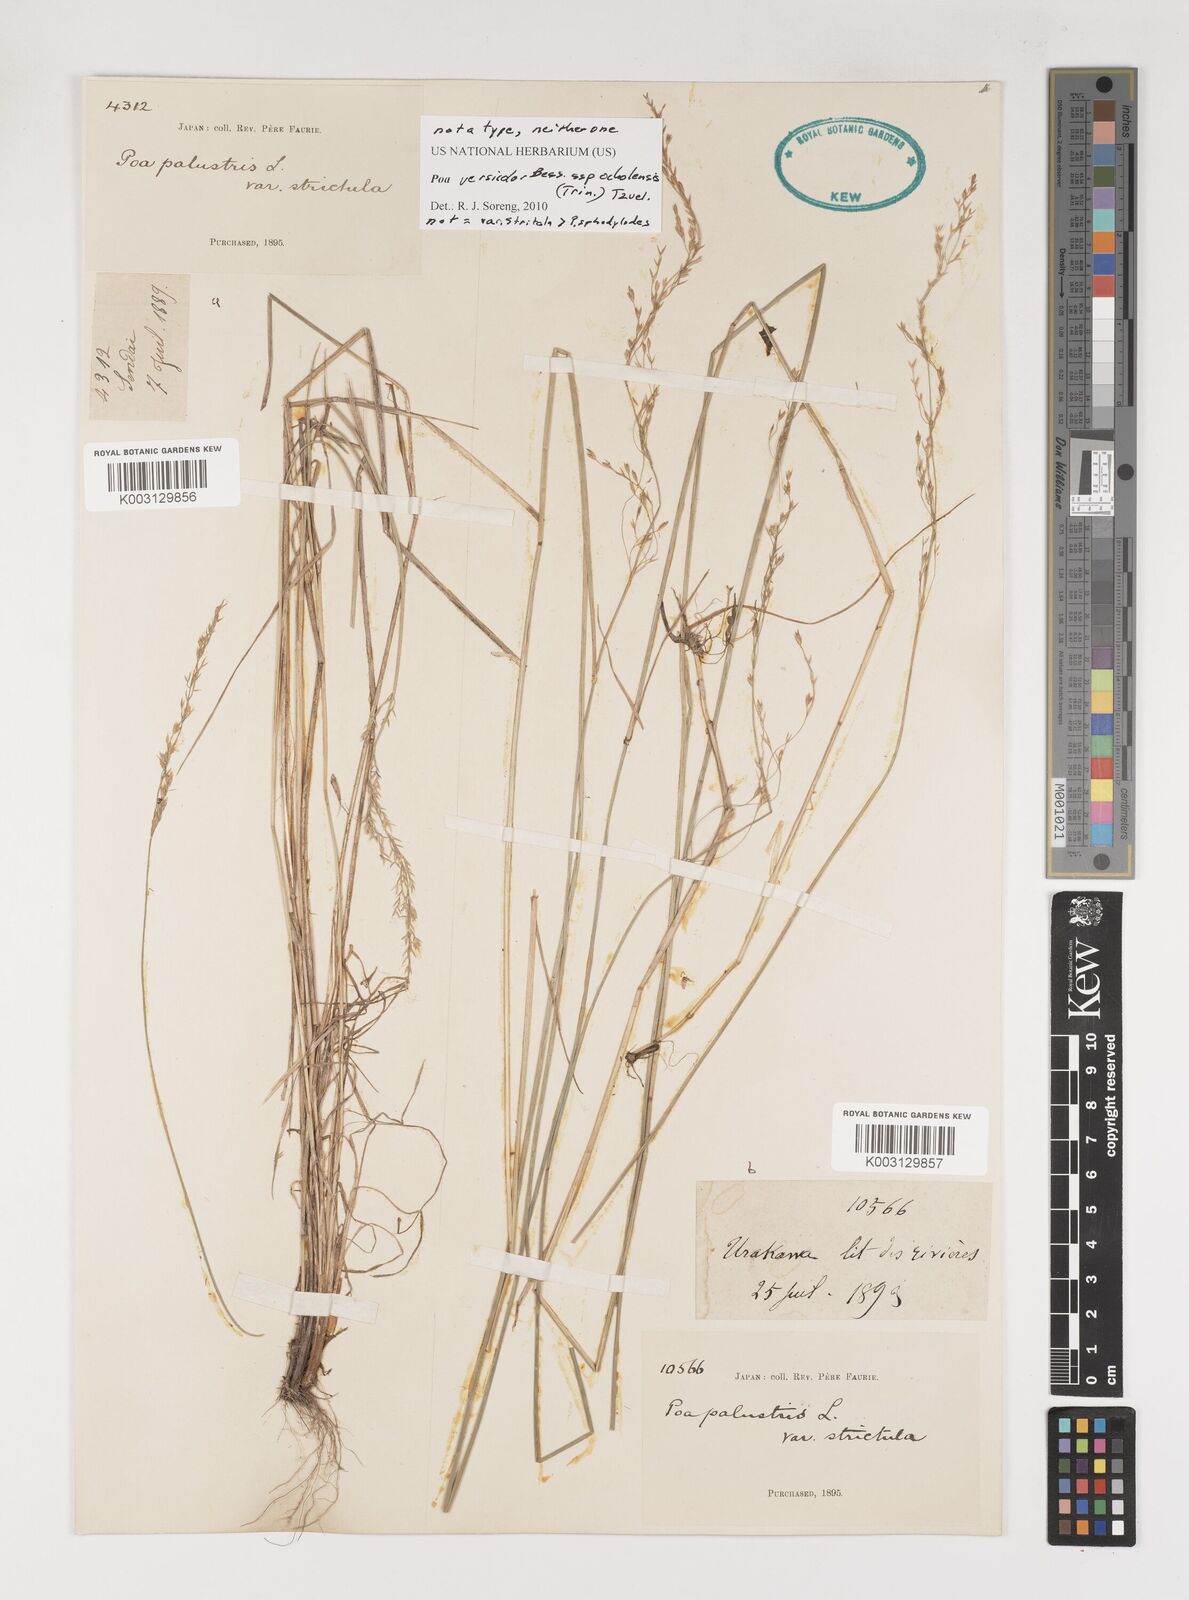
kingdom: Plantae
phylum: Tracheophyta
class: Liliopsida
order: Poales
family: Poaceae
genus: Poa
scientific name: Poa sphondylodes
